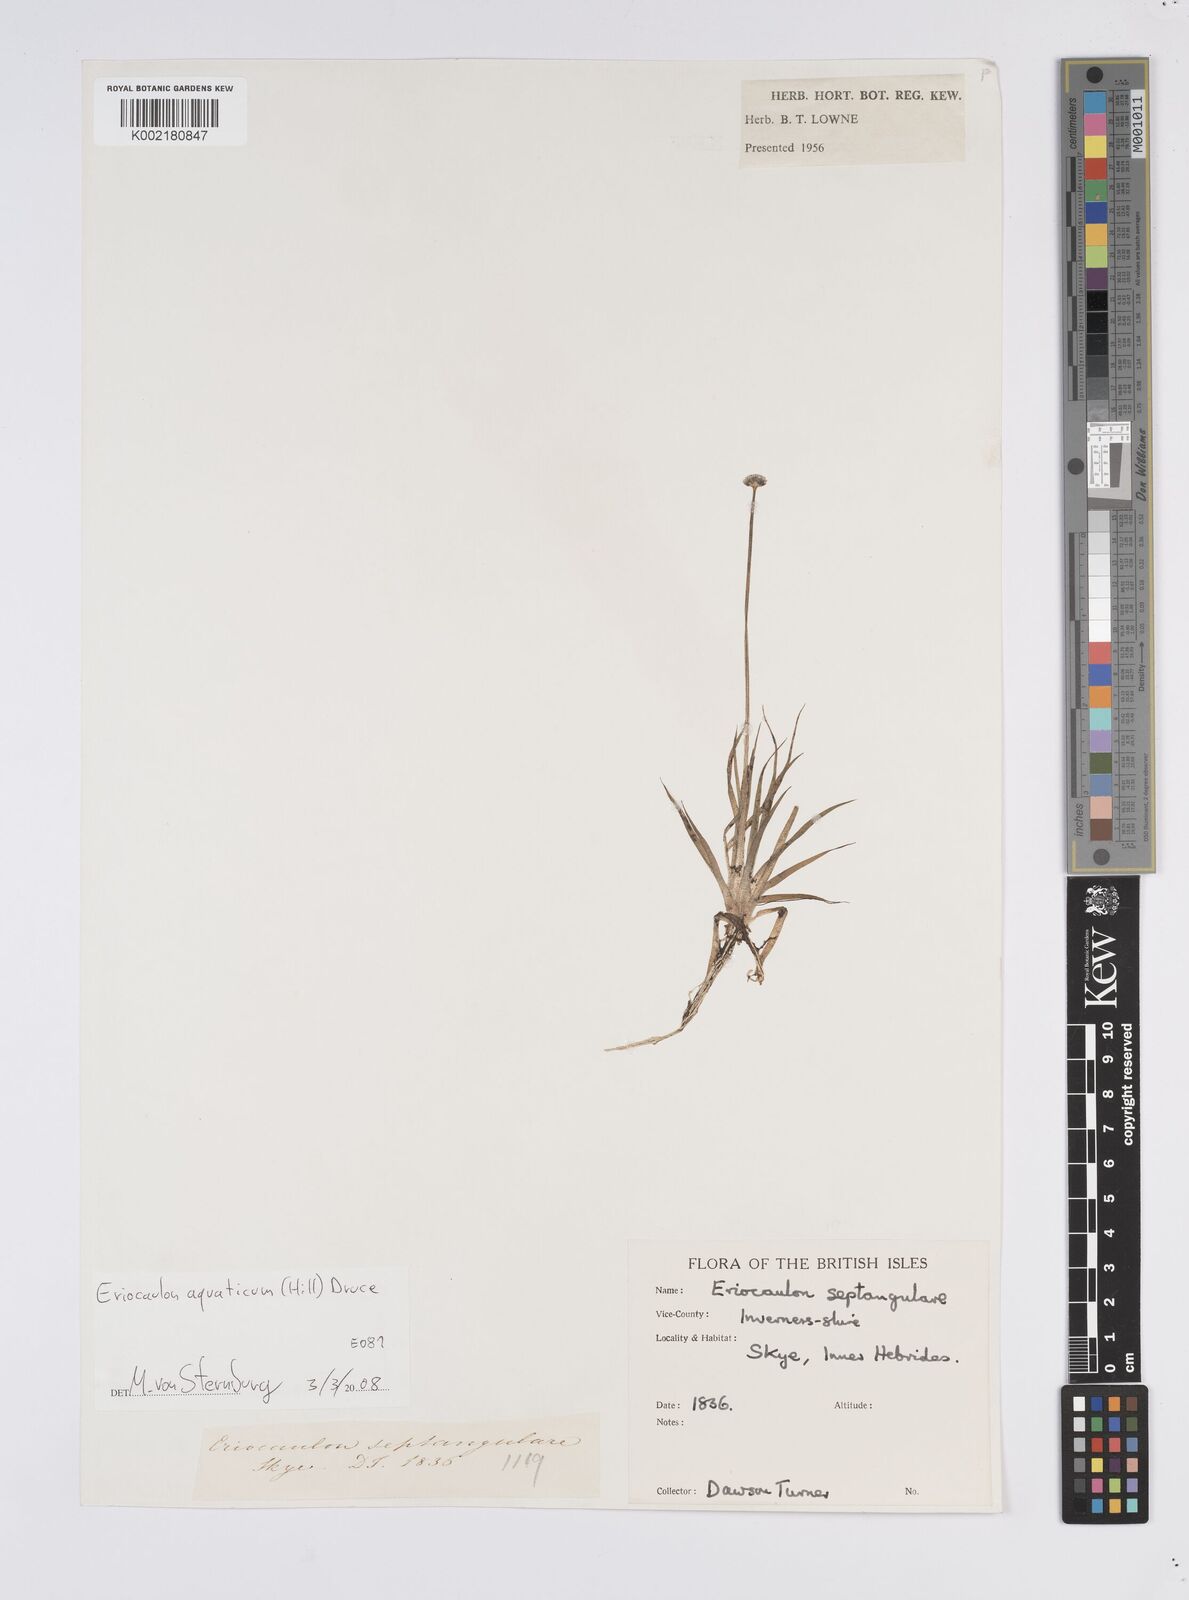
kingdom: Plantae
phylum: Tracheophyta
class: Liliopsida
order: Poales
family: Eriocaulaceae
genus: Eriocaulon
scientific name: Eriocaulon aquaticum
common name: Pipewort
